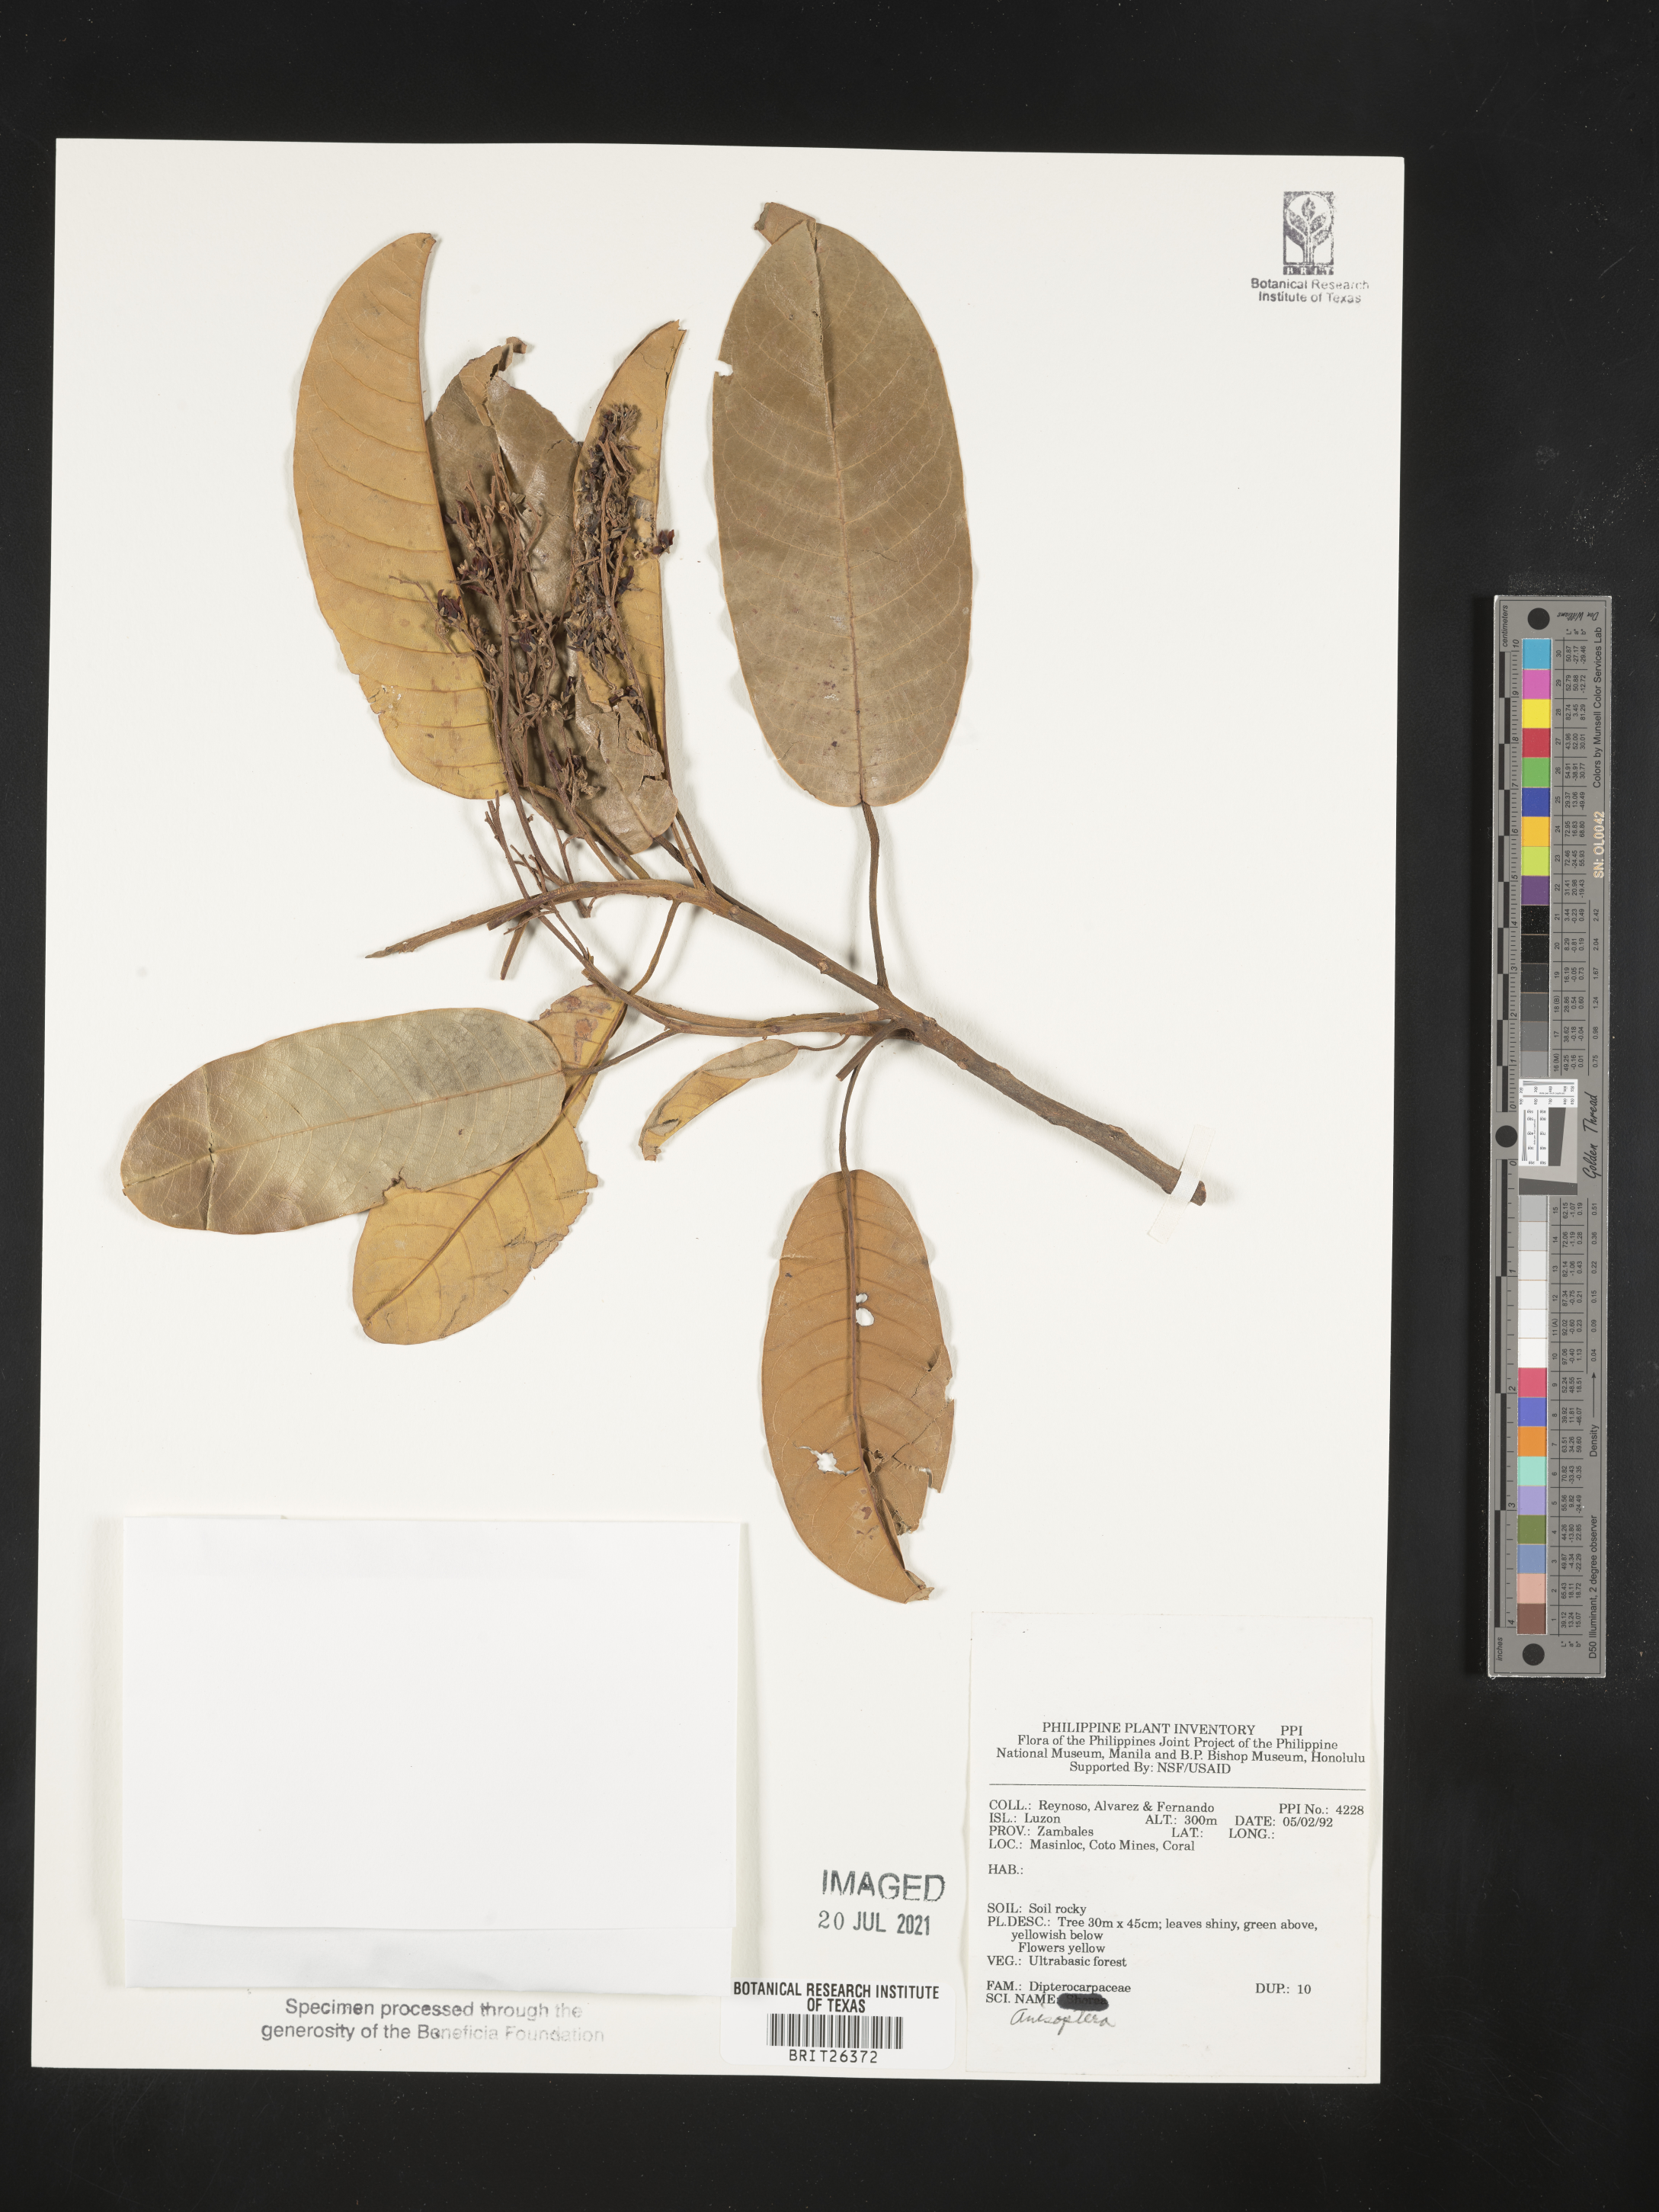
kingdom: Plantae
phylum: Tracheophyta
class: Magnoliopsida
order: Malvales
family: Dipterocarpaceae
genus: Anisoptera
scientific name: Anisoptera
